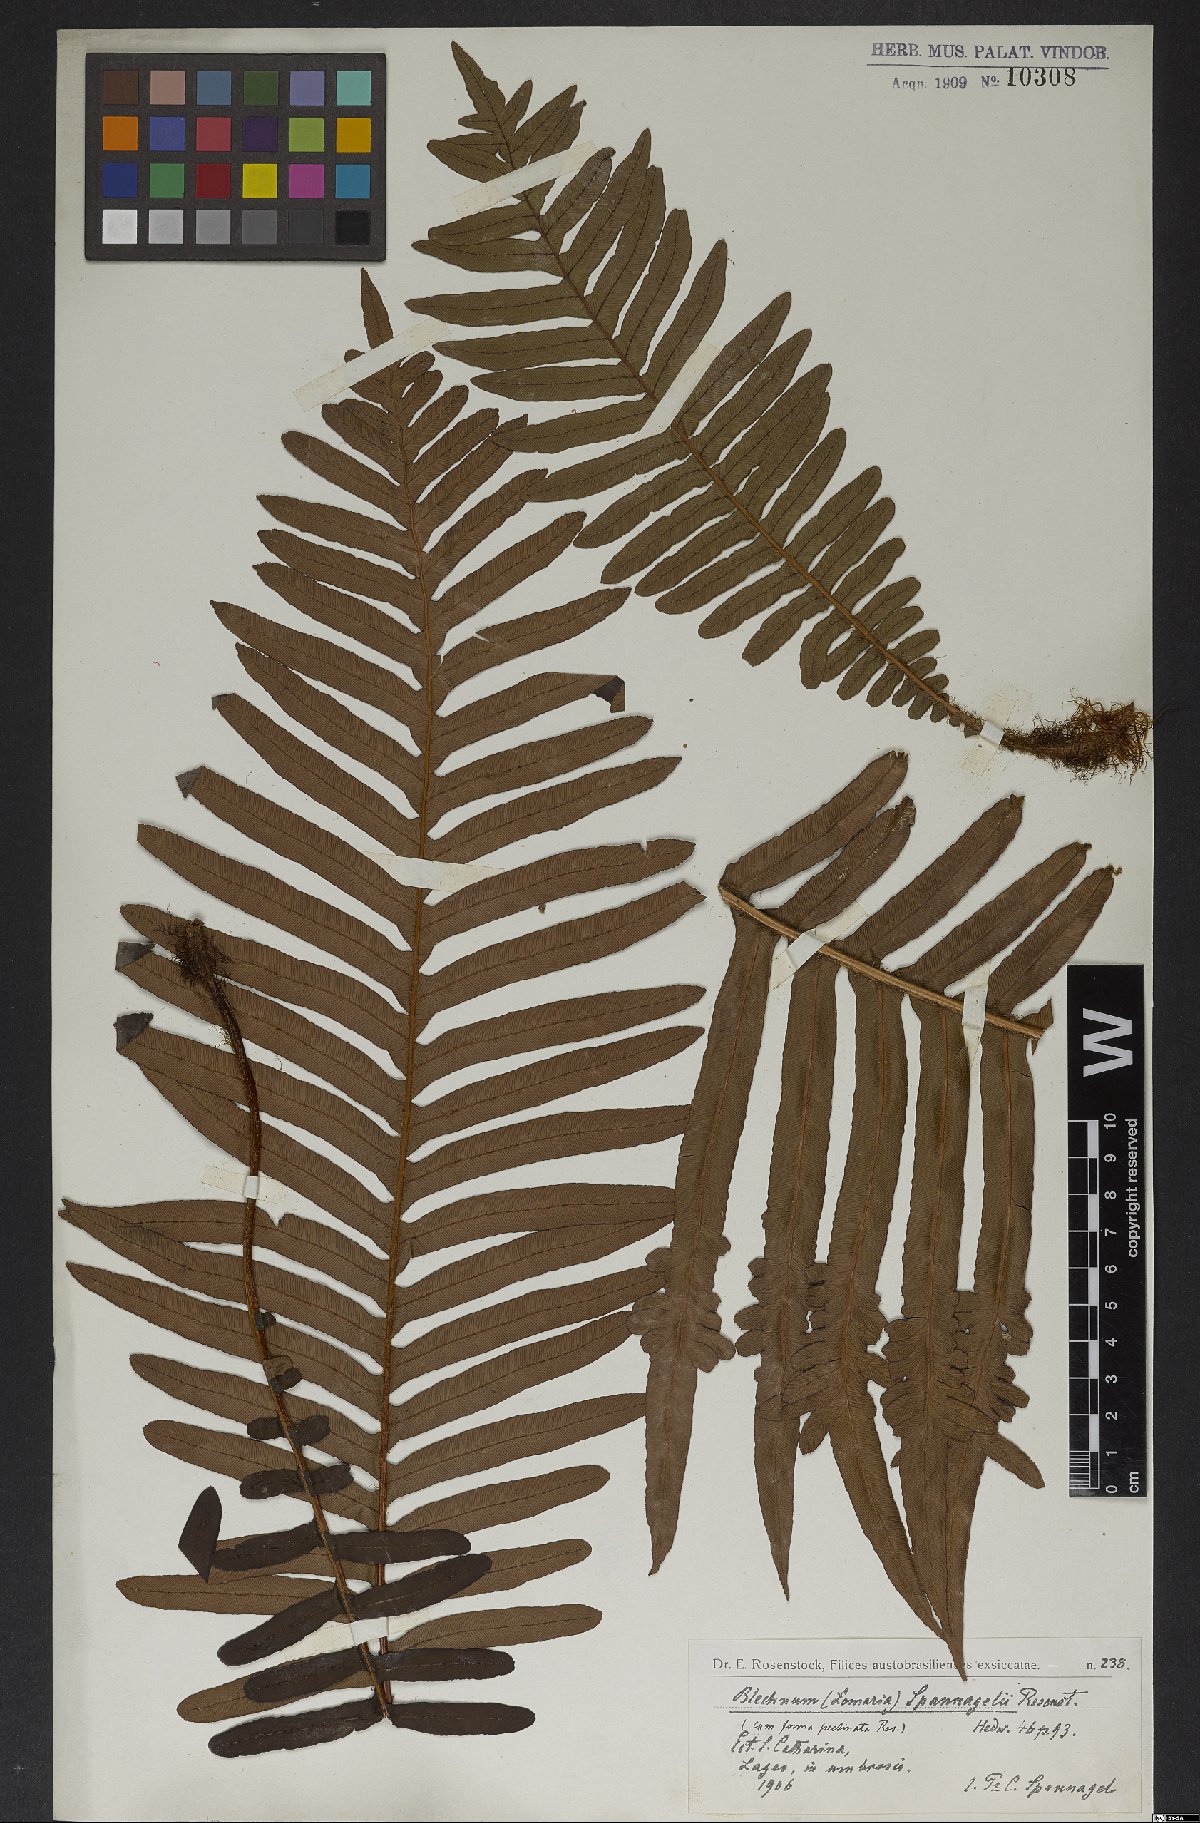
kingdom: Plantae
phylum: Tracheophyta
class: Polypodiopsida
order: Polypodiales
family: Blechnaceae
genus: Lomaria
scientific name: Lomaria spannagelii
